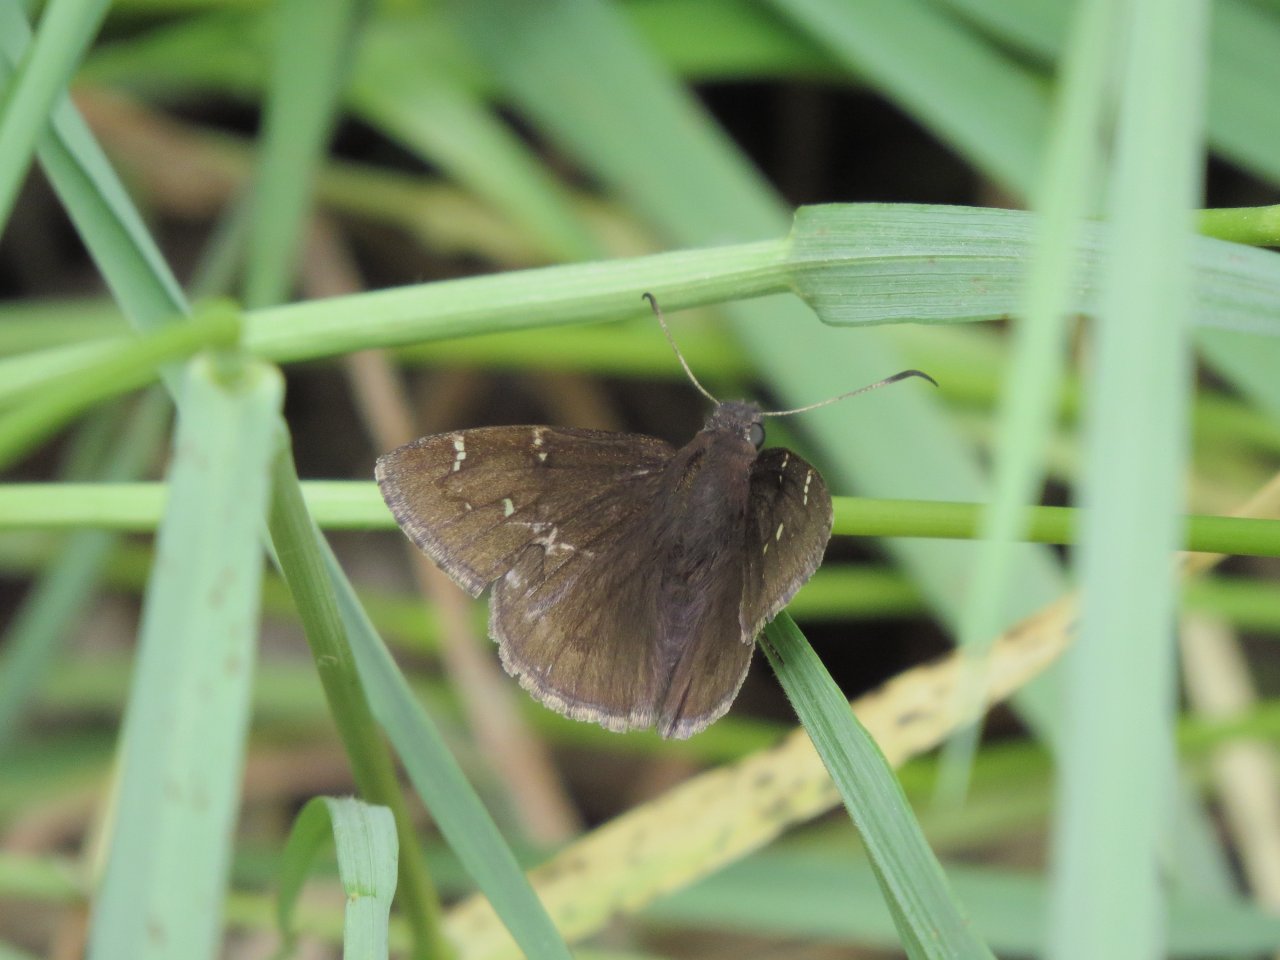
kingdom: Animalia
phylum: Arthropoda
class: Insecta
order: Lepidoptera
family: Hesperiidae
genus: Autochton
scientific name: Autochton
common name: Northern Cloudywing
